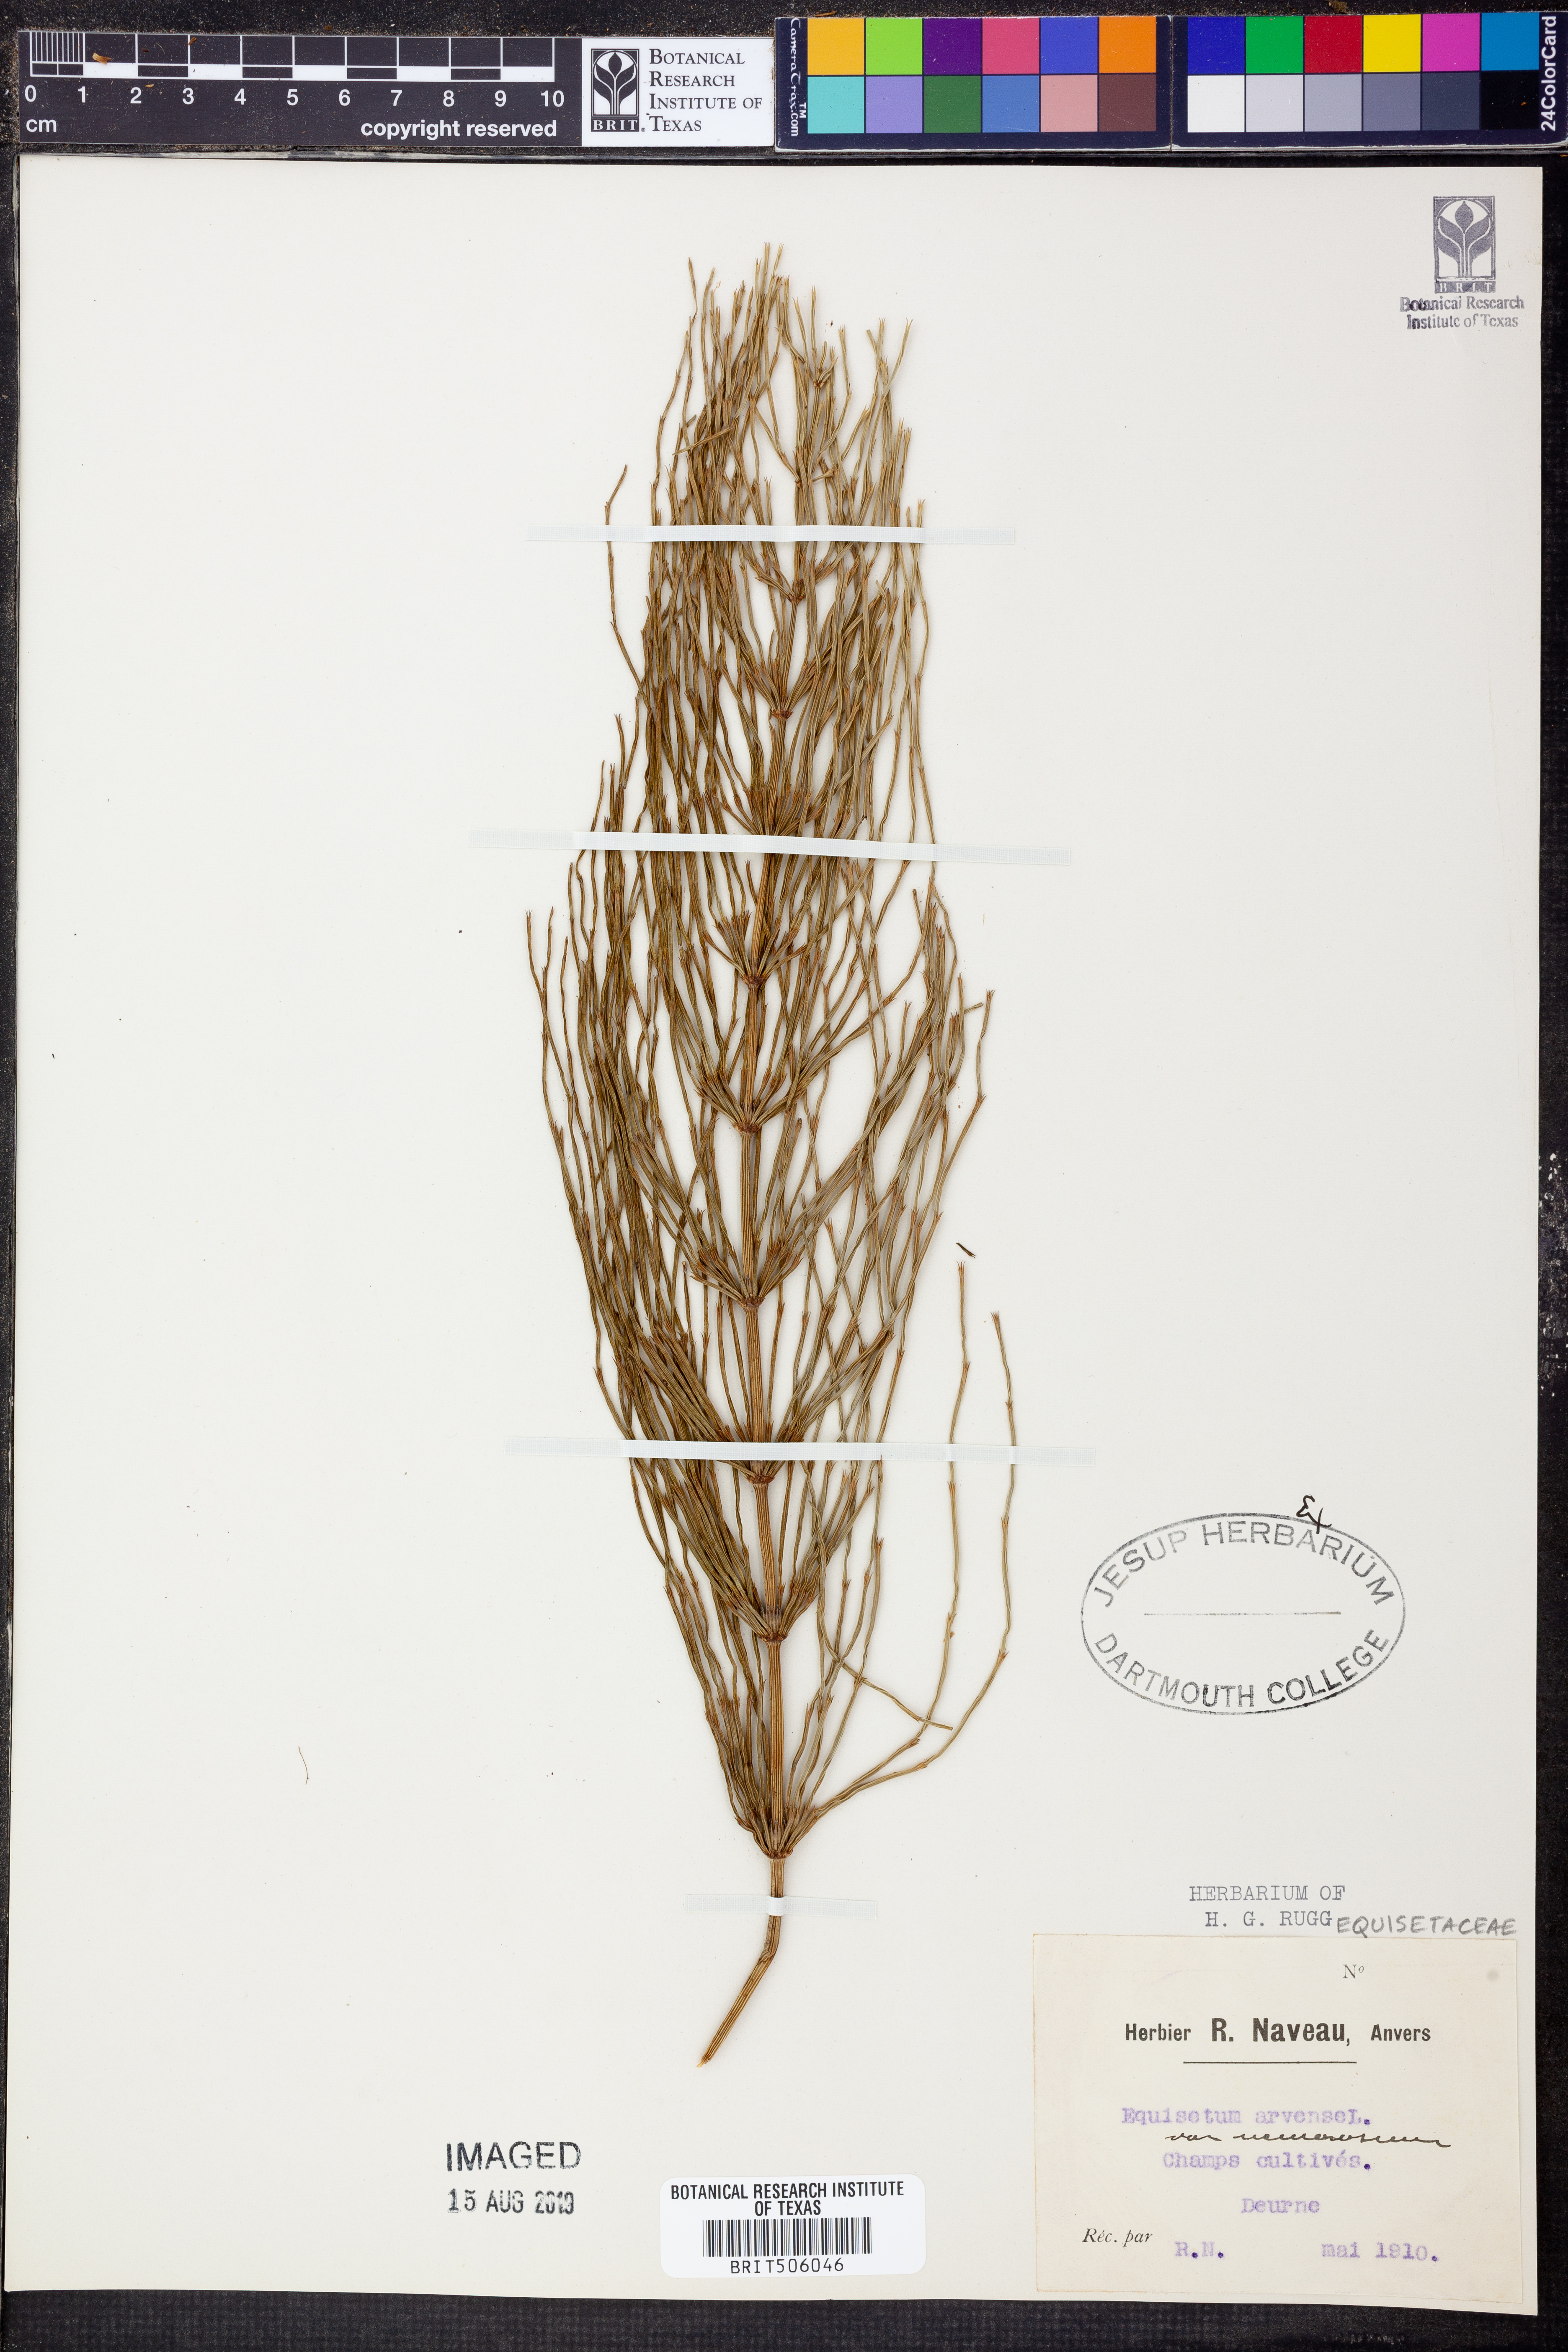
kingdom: Plantae
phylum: Tracheophyta
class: Polypodiopsida
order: Equisetales
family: Equisetaceae
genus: Equisetum
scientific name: Equisetum arvense
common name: Field horsetail
